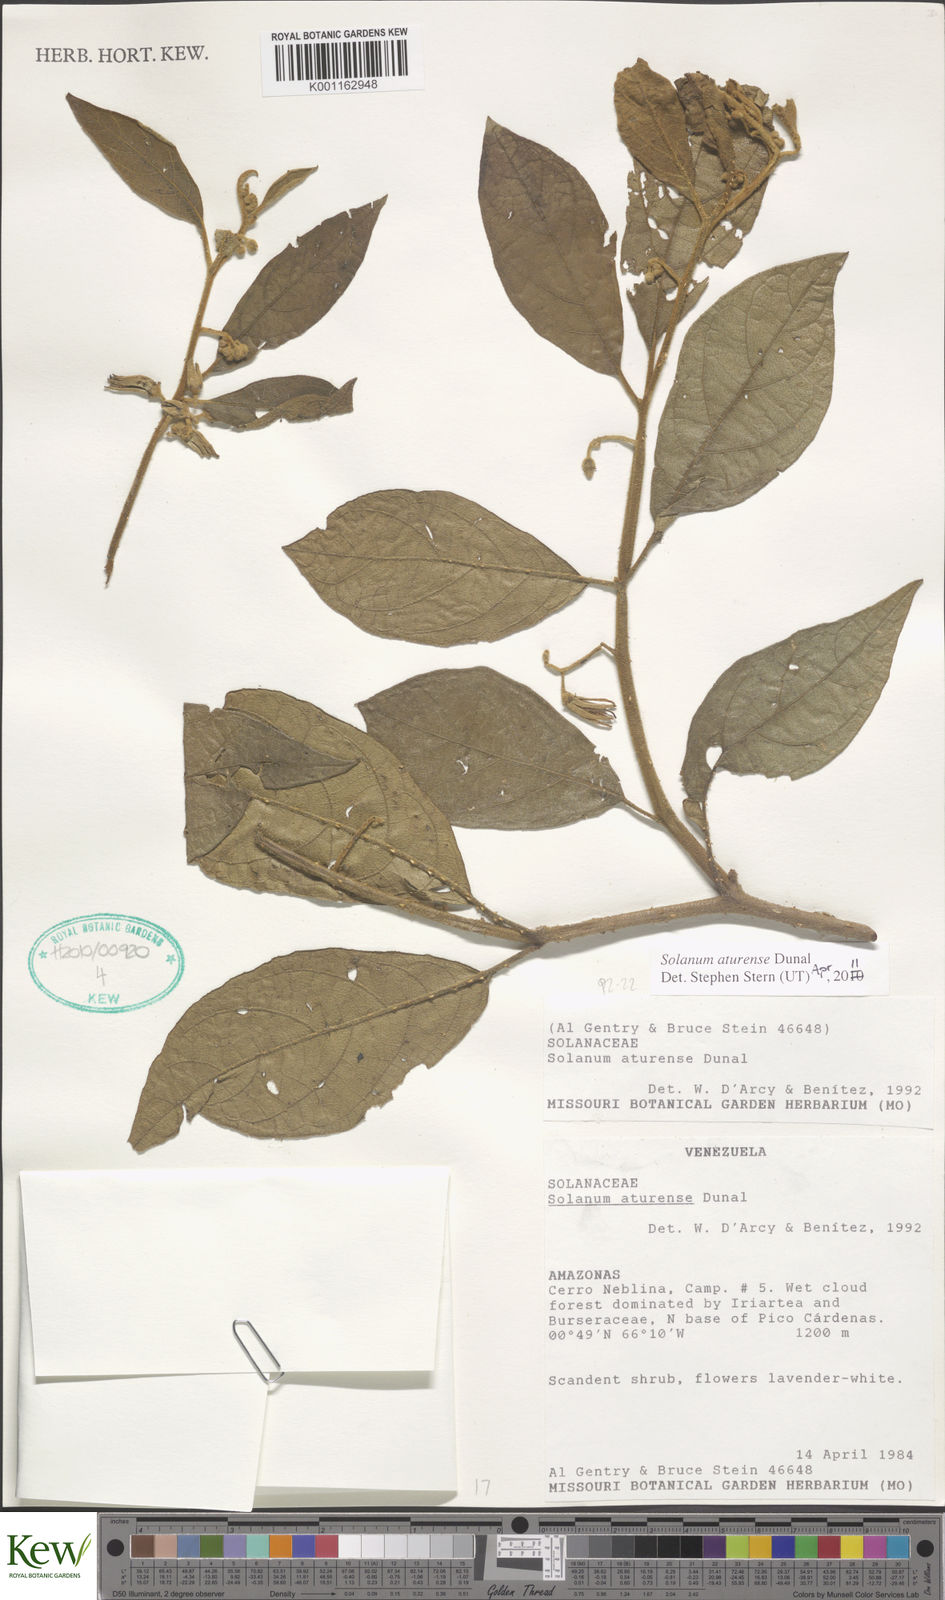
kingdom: Plantae
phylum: Tracheophyta
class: Magnoliopsida
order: Solanales
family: Solanaceae
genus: Solanum
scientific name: Solanum aturense
